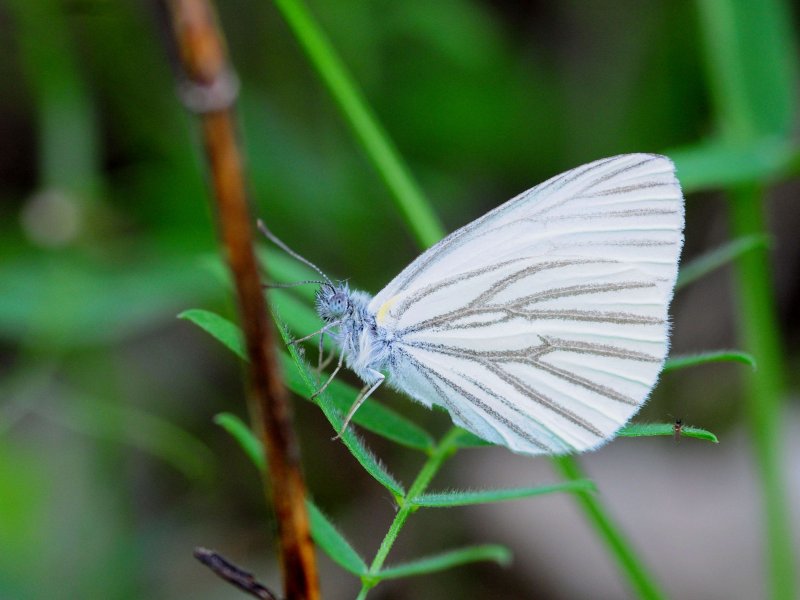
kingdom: Animalia
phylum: Arthropoda
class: Insecta
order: Lepidoptera
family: Pieridae
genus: Pieris
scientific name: Pieris oleracea
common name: Mustard White
